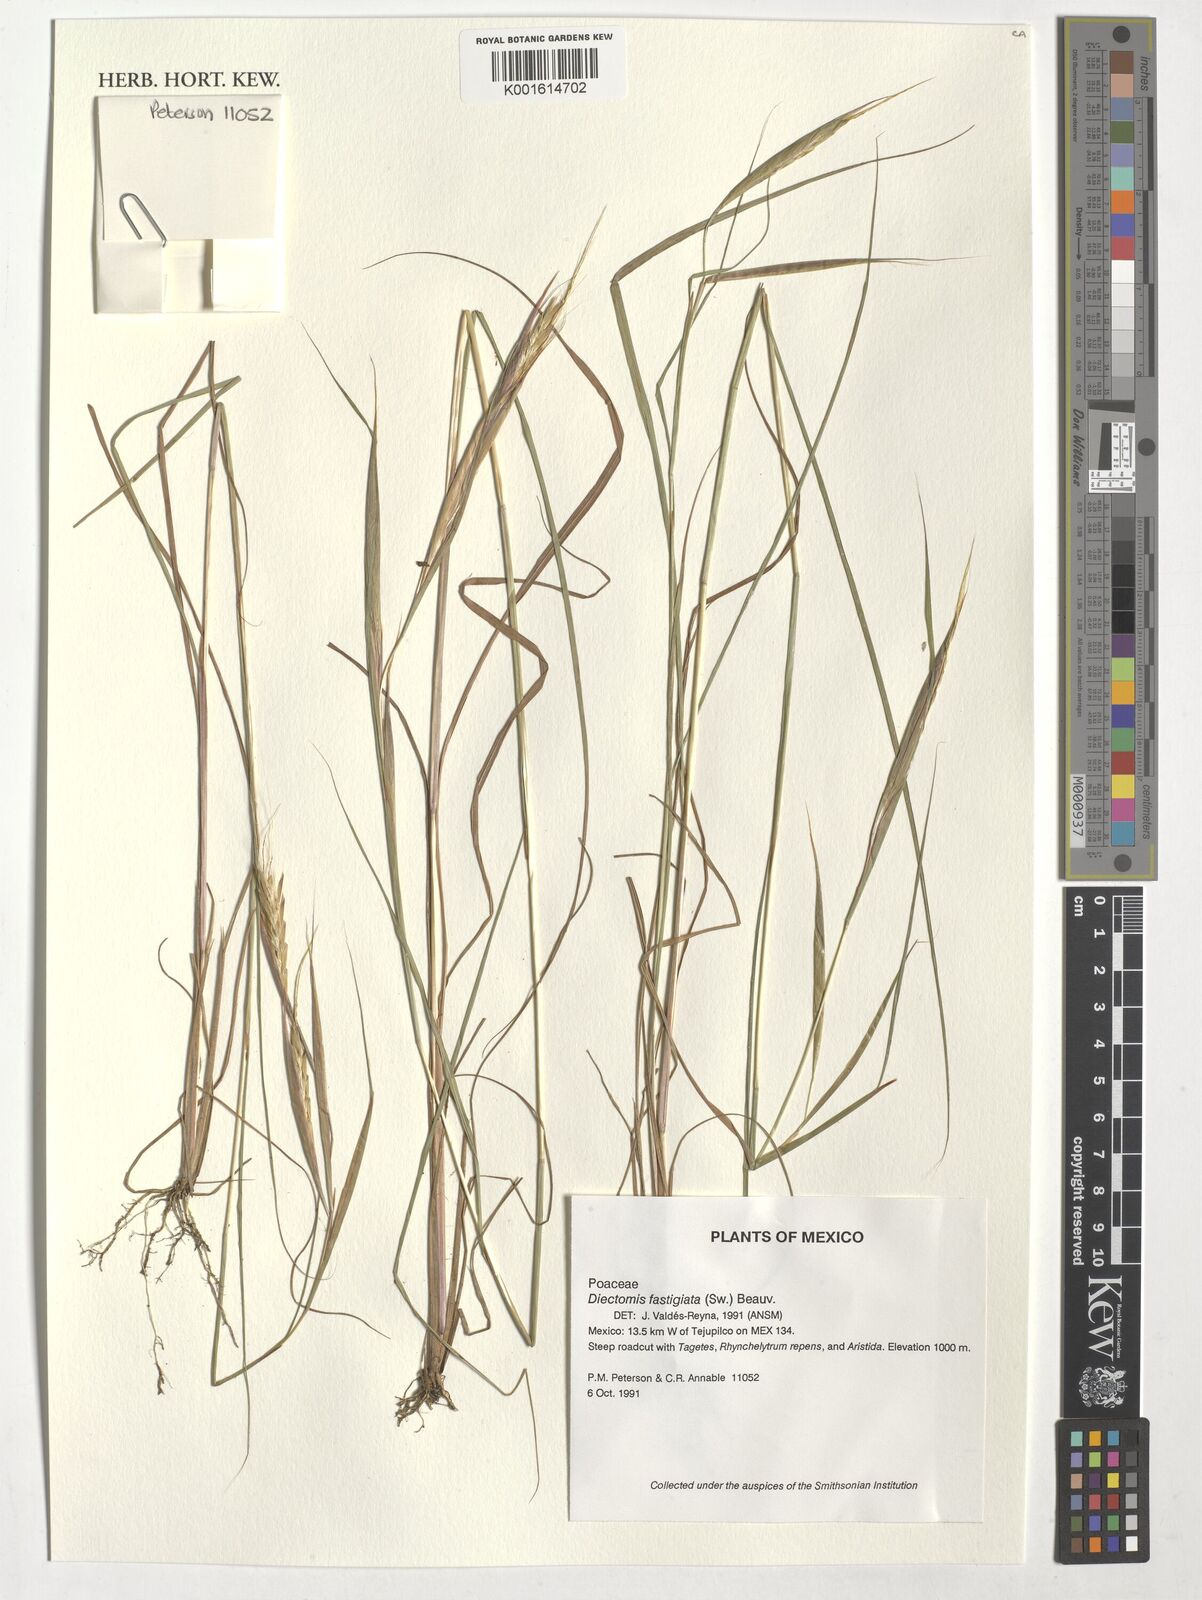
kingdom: Plantae
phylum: Tracheophyta
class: Liliopsida
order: Poales
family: Poaceae
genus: Diectomis
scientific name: Diectomis fastigiata
